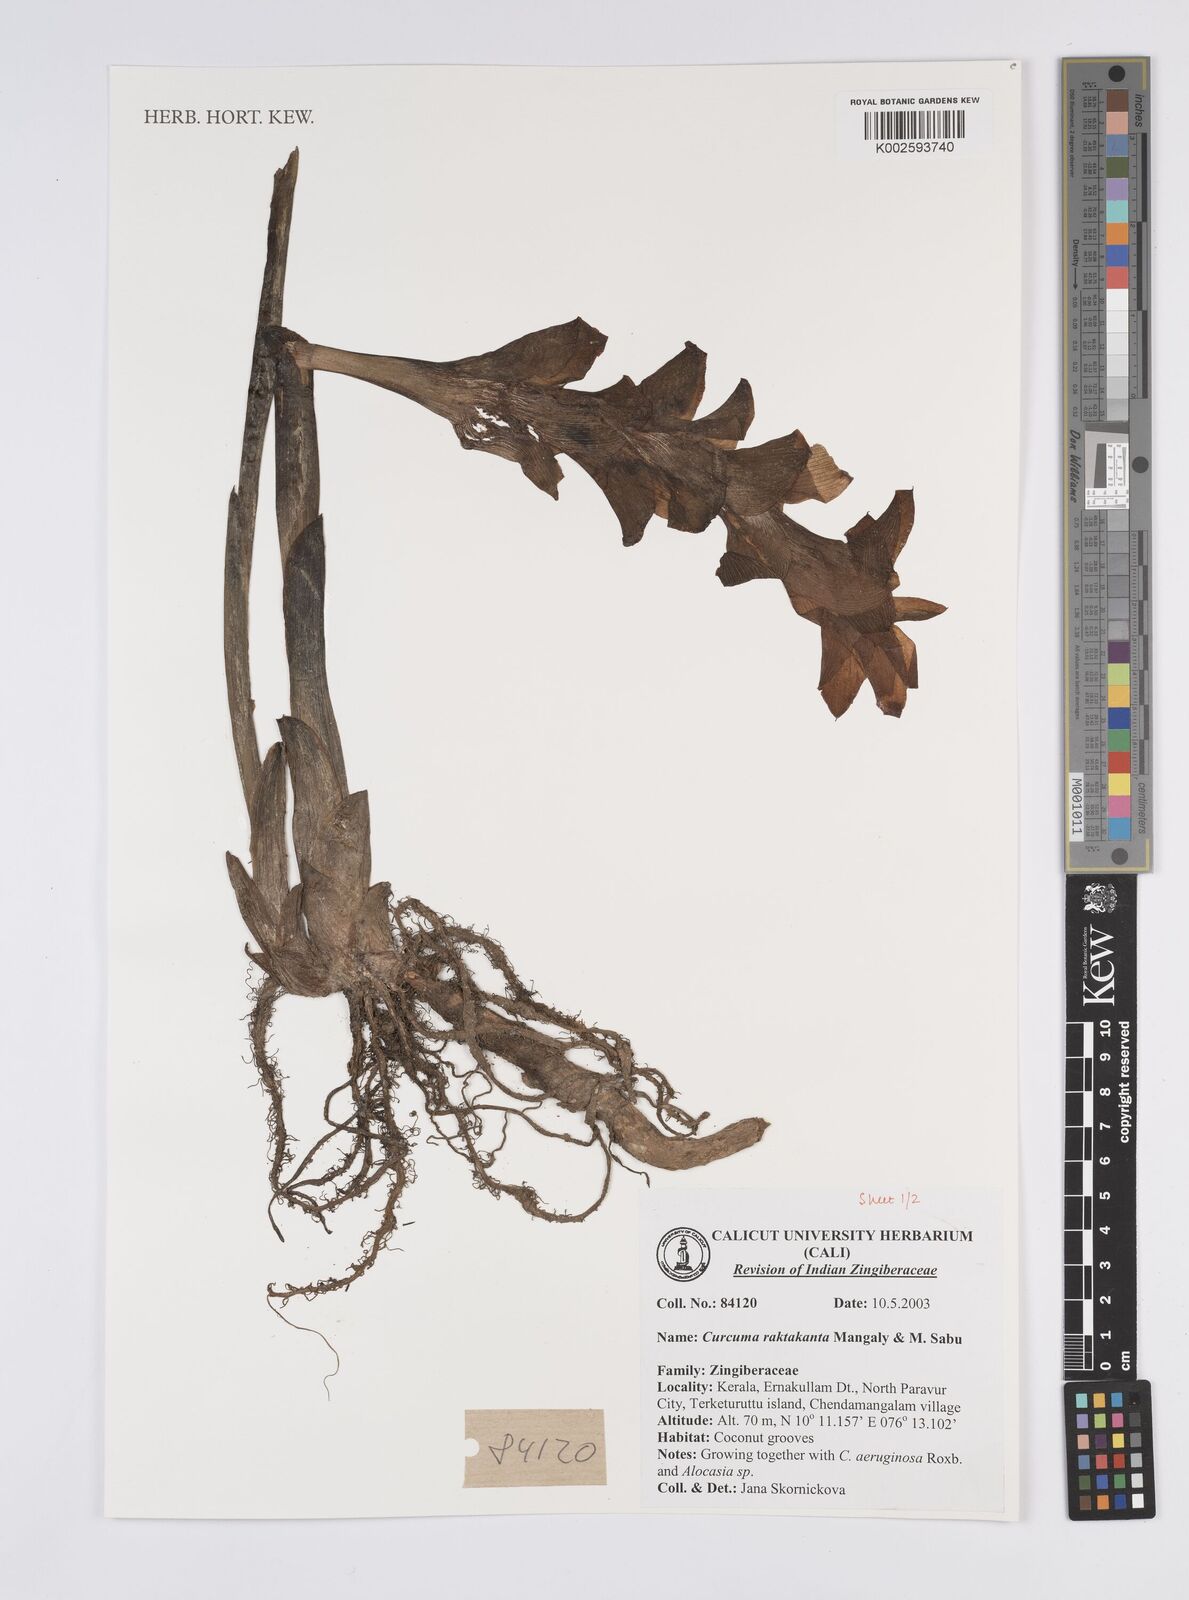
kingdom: Plantae
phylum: Tracheophyta
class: Liliopsida
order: Zingiberales
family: Zingiberaceae
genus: Curcuma
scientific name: Curcuma zedoaria
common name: Zedoary
